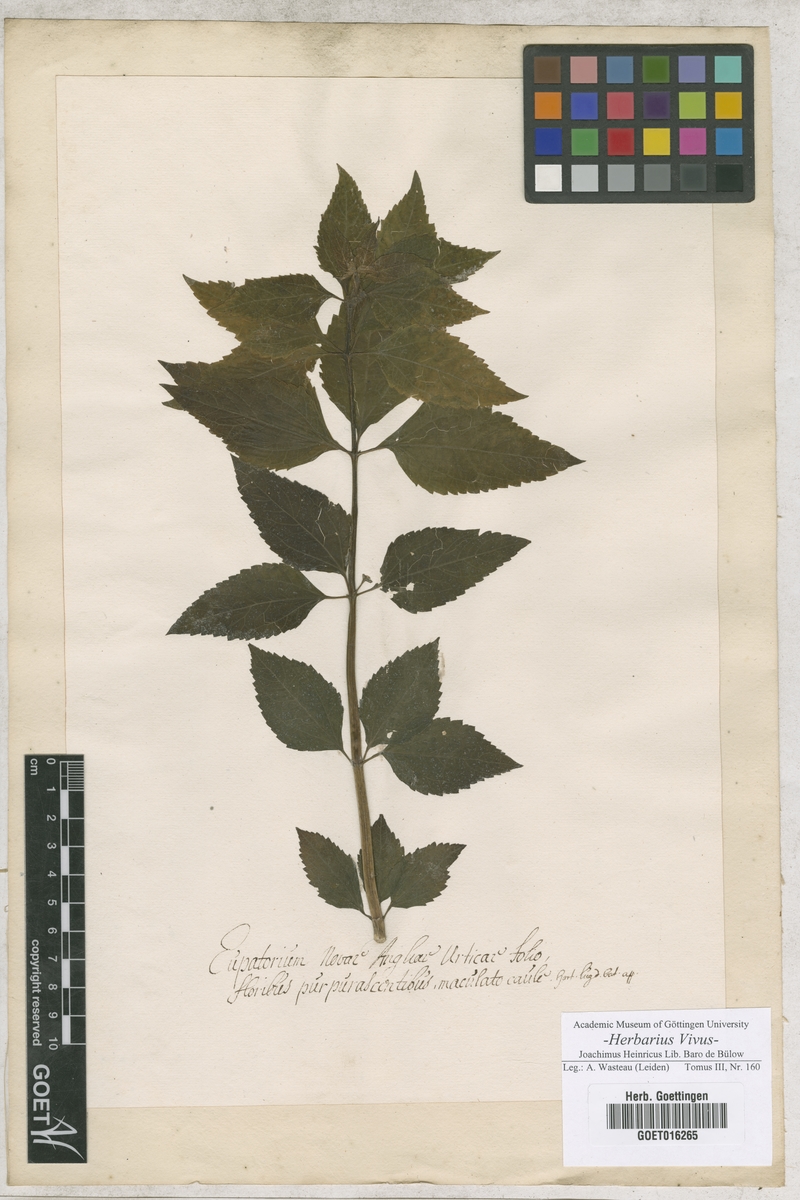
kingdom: Plantae
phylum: Tracheophyta
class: Magnoliopsida
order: Asterales
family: Asteraceae
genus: Eutrochium
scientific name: Eutrochium purpureum
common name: Gravelroot
